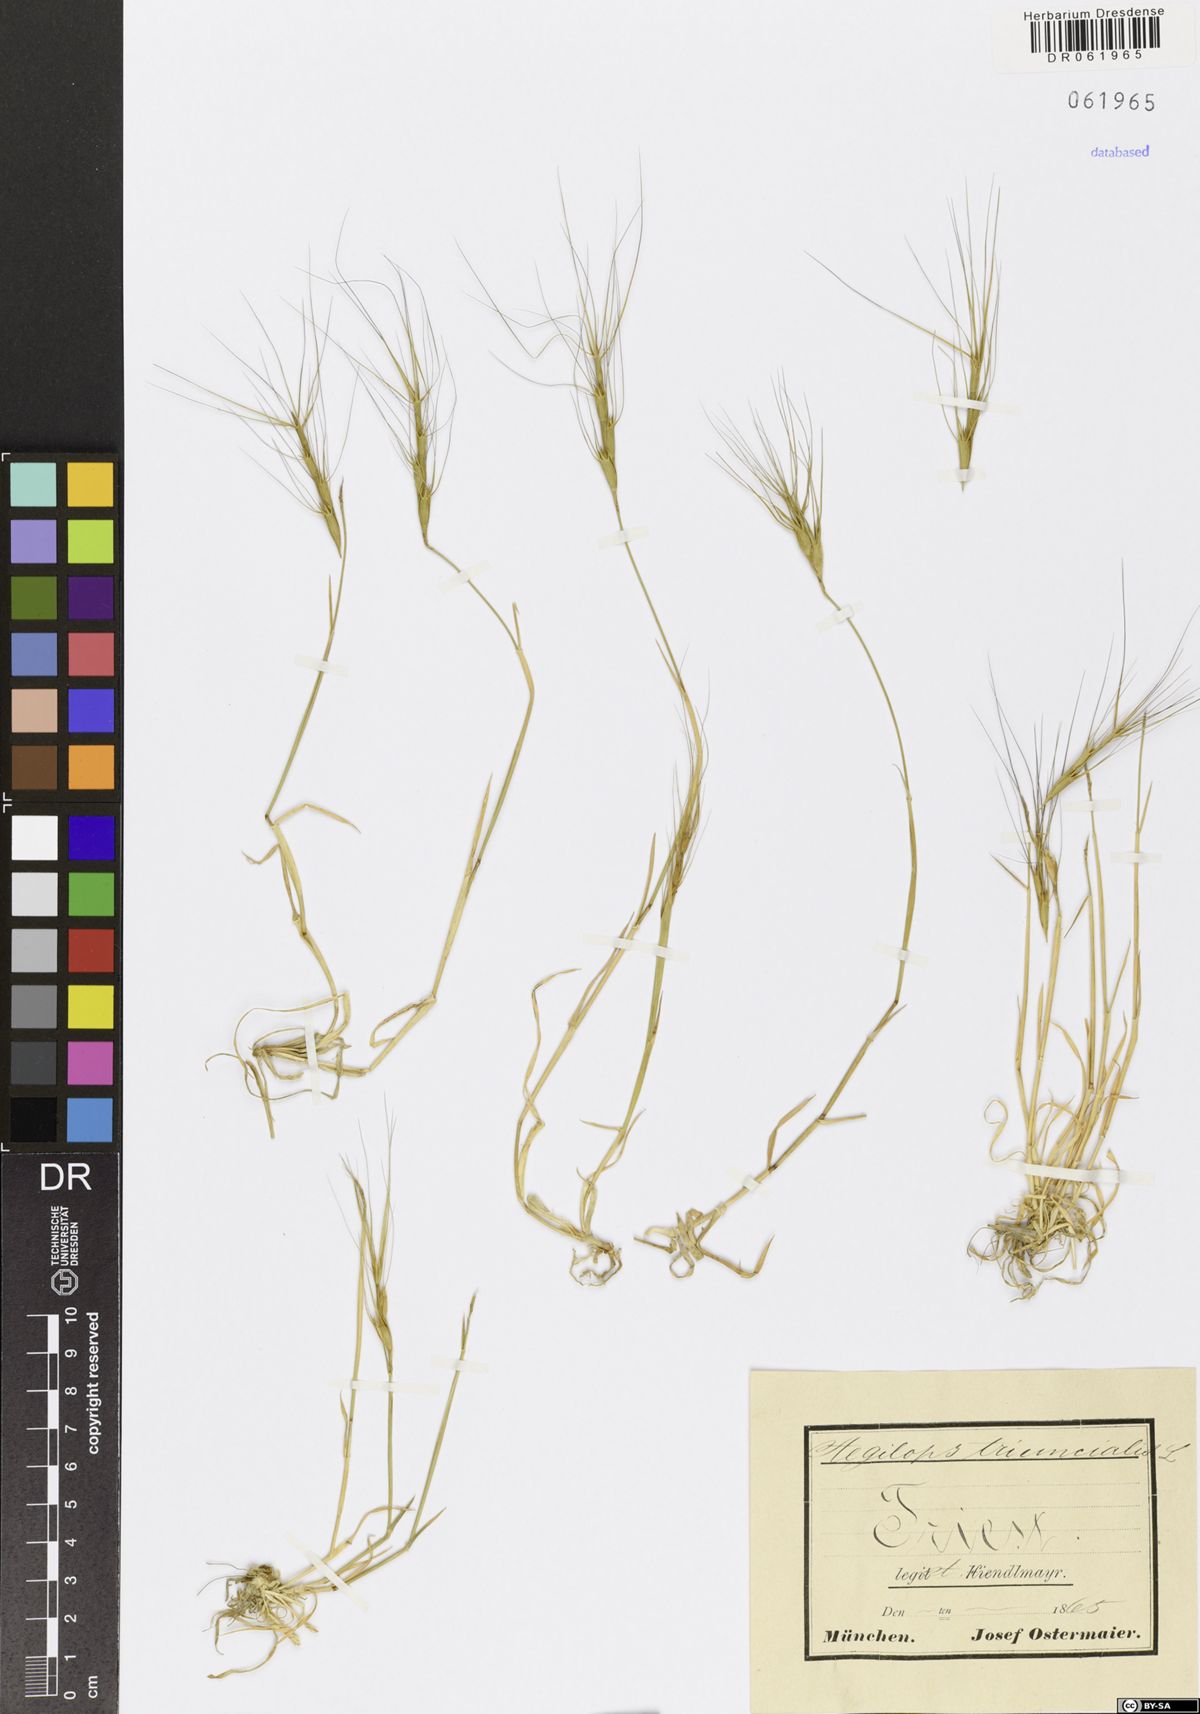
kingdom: Plantae
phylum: Tracheophyta
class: Liliopsida
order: Poales
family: Poaceae
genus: Aegilops
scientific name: Aegilops triuncialis
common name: Barb goat grass
